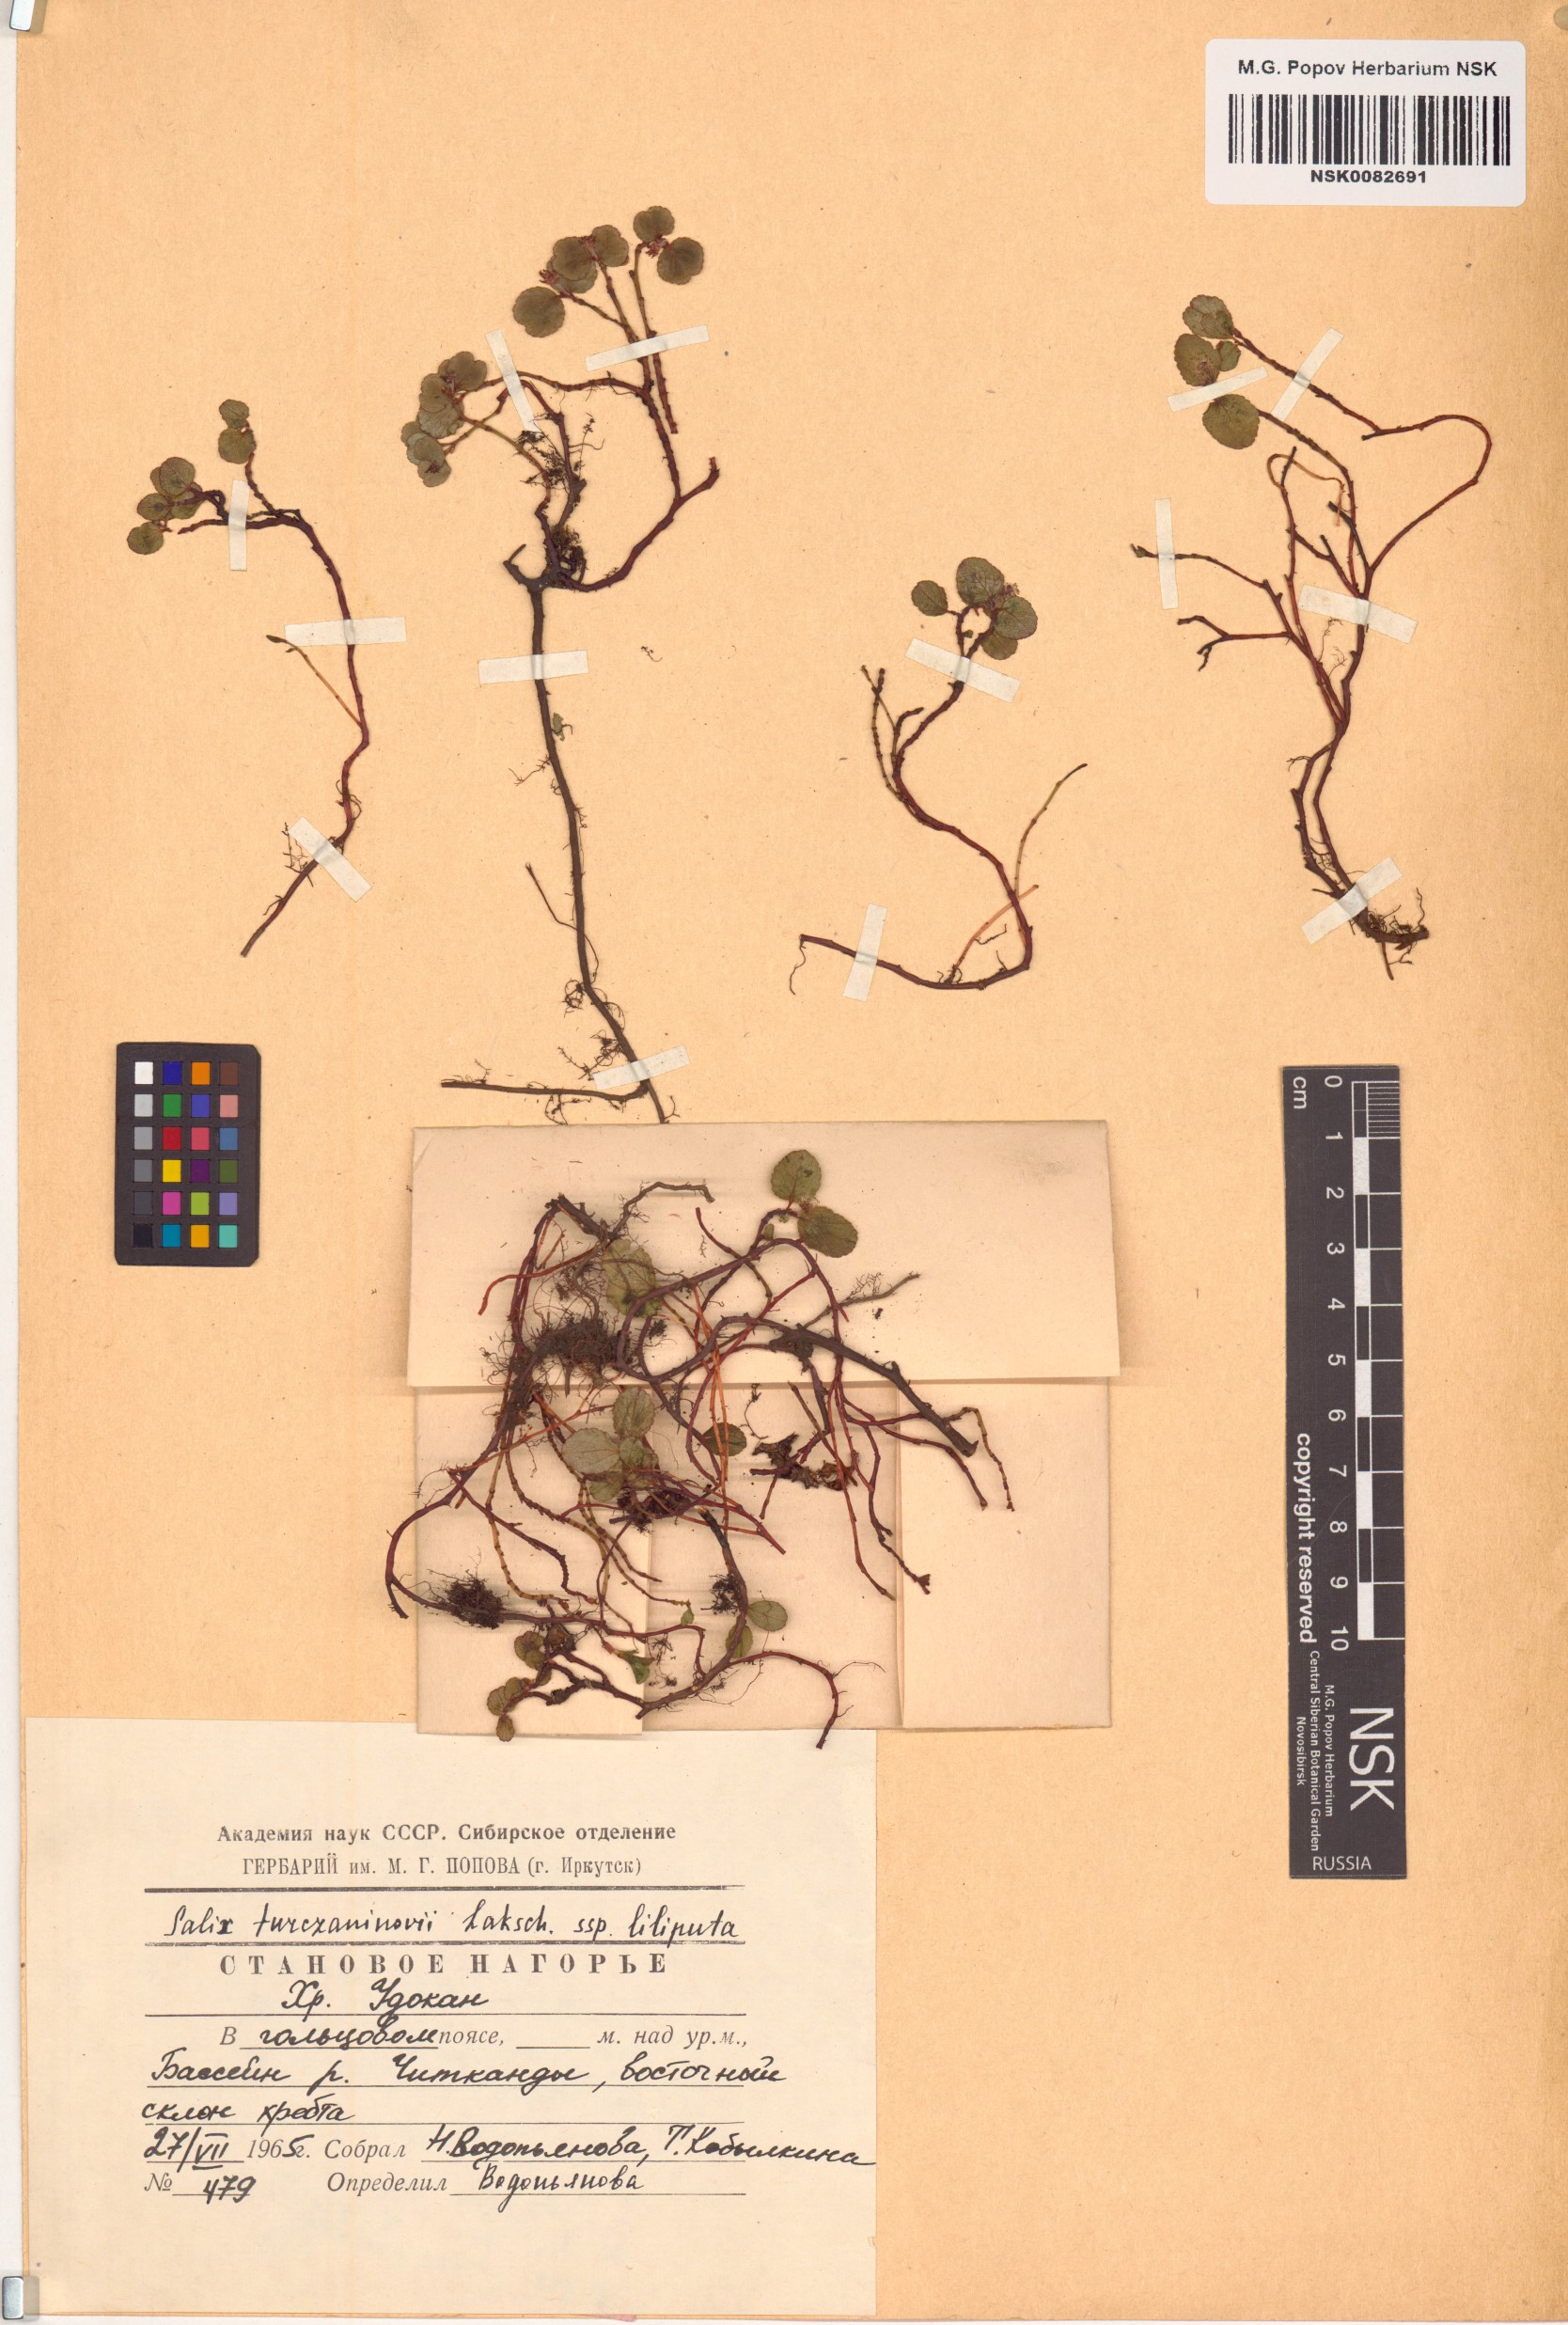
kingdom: Plantae
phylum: Tracheophyta
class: Magnoliopsida
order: Malpighiales
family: Salicaceae
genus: Salix
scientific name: Salix turczaninowii
